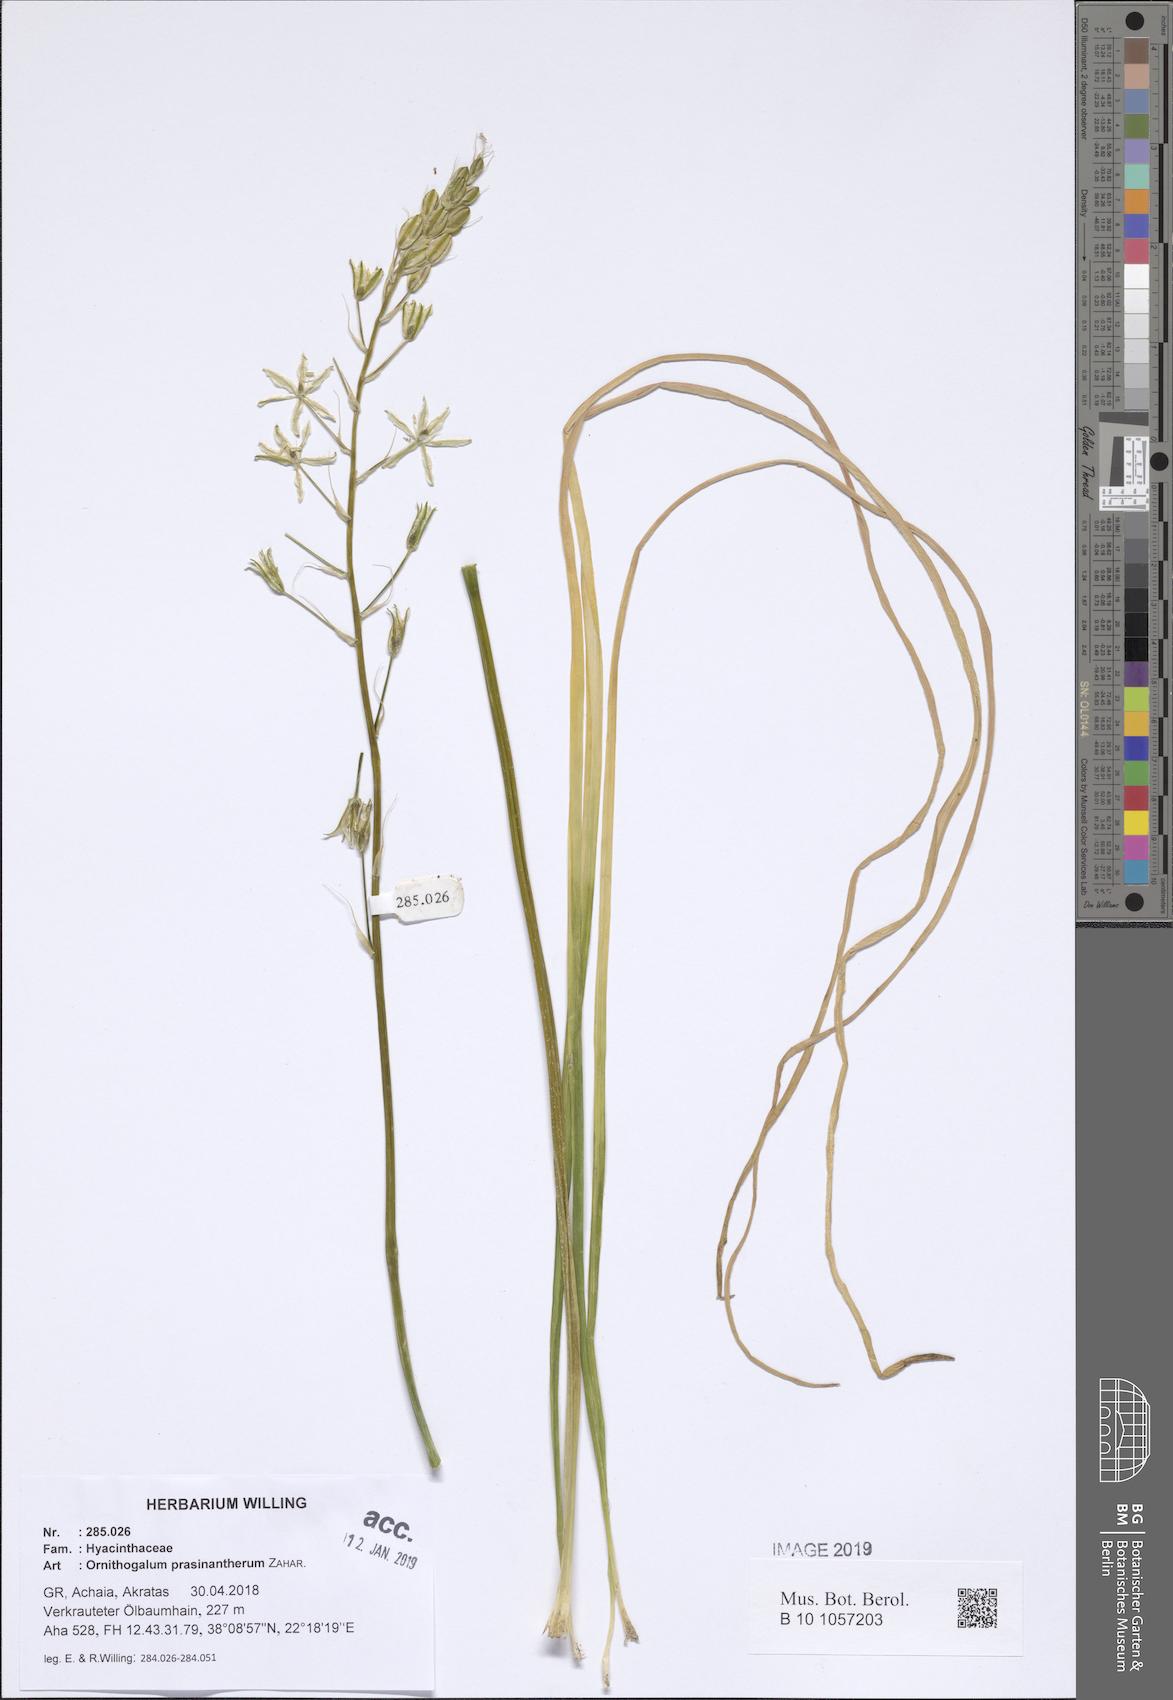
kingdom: Plantae
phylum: Tracheophyta
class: Liliopsida
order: Asparagales
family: Asparagaceae
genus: Ornithogalum
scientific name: Ornithogalum prasinantherum
